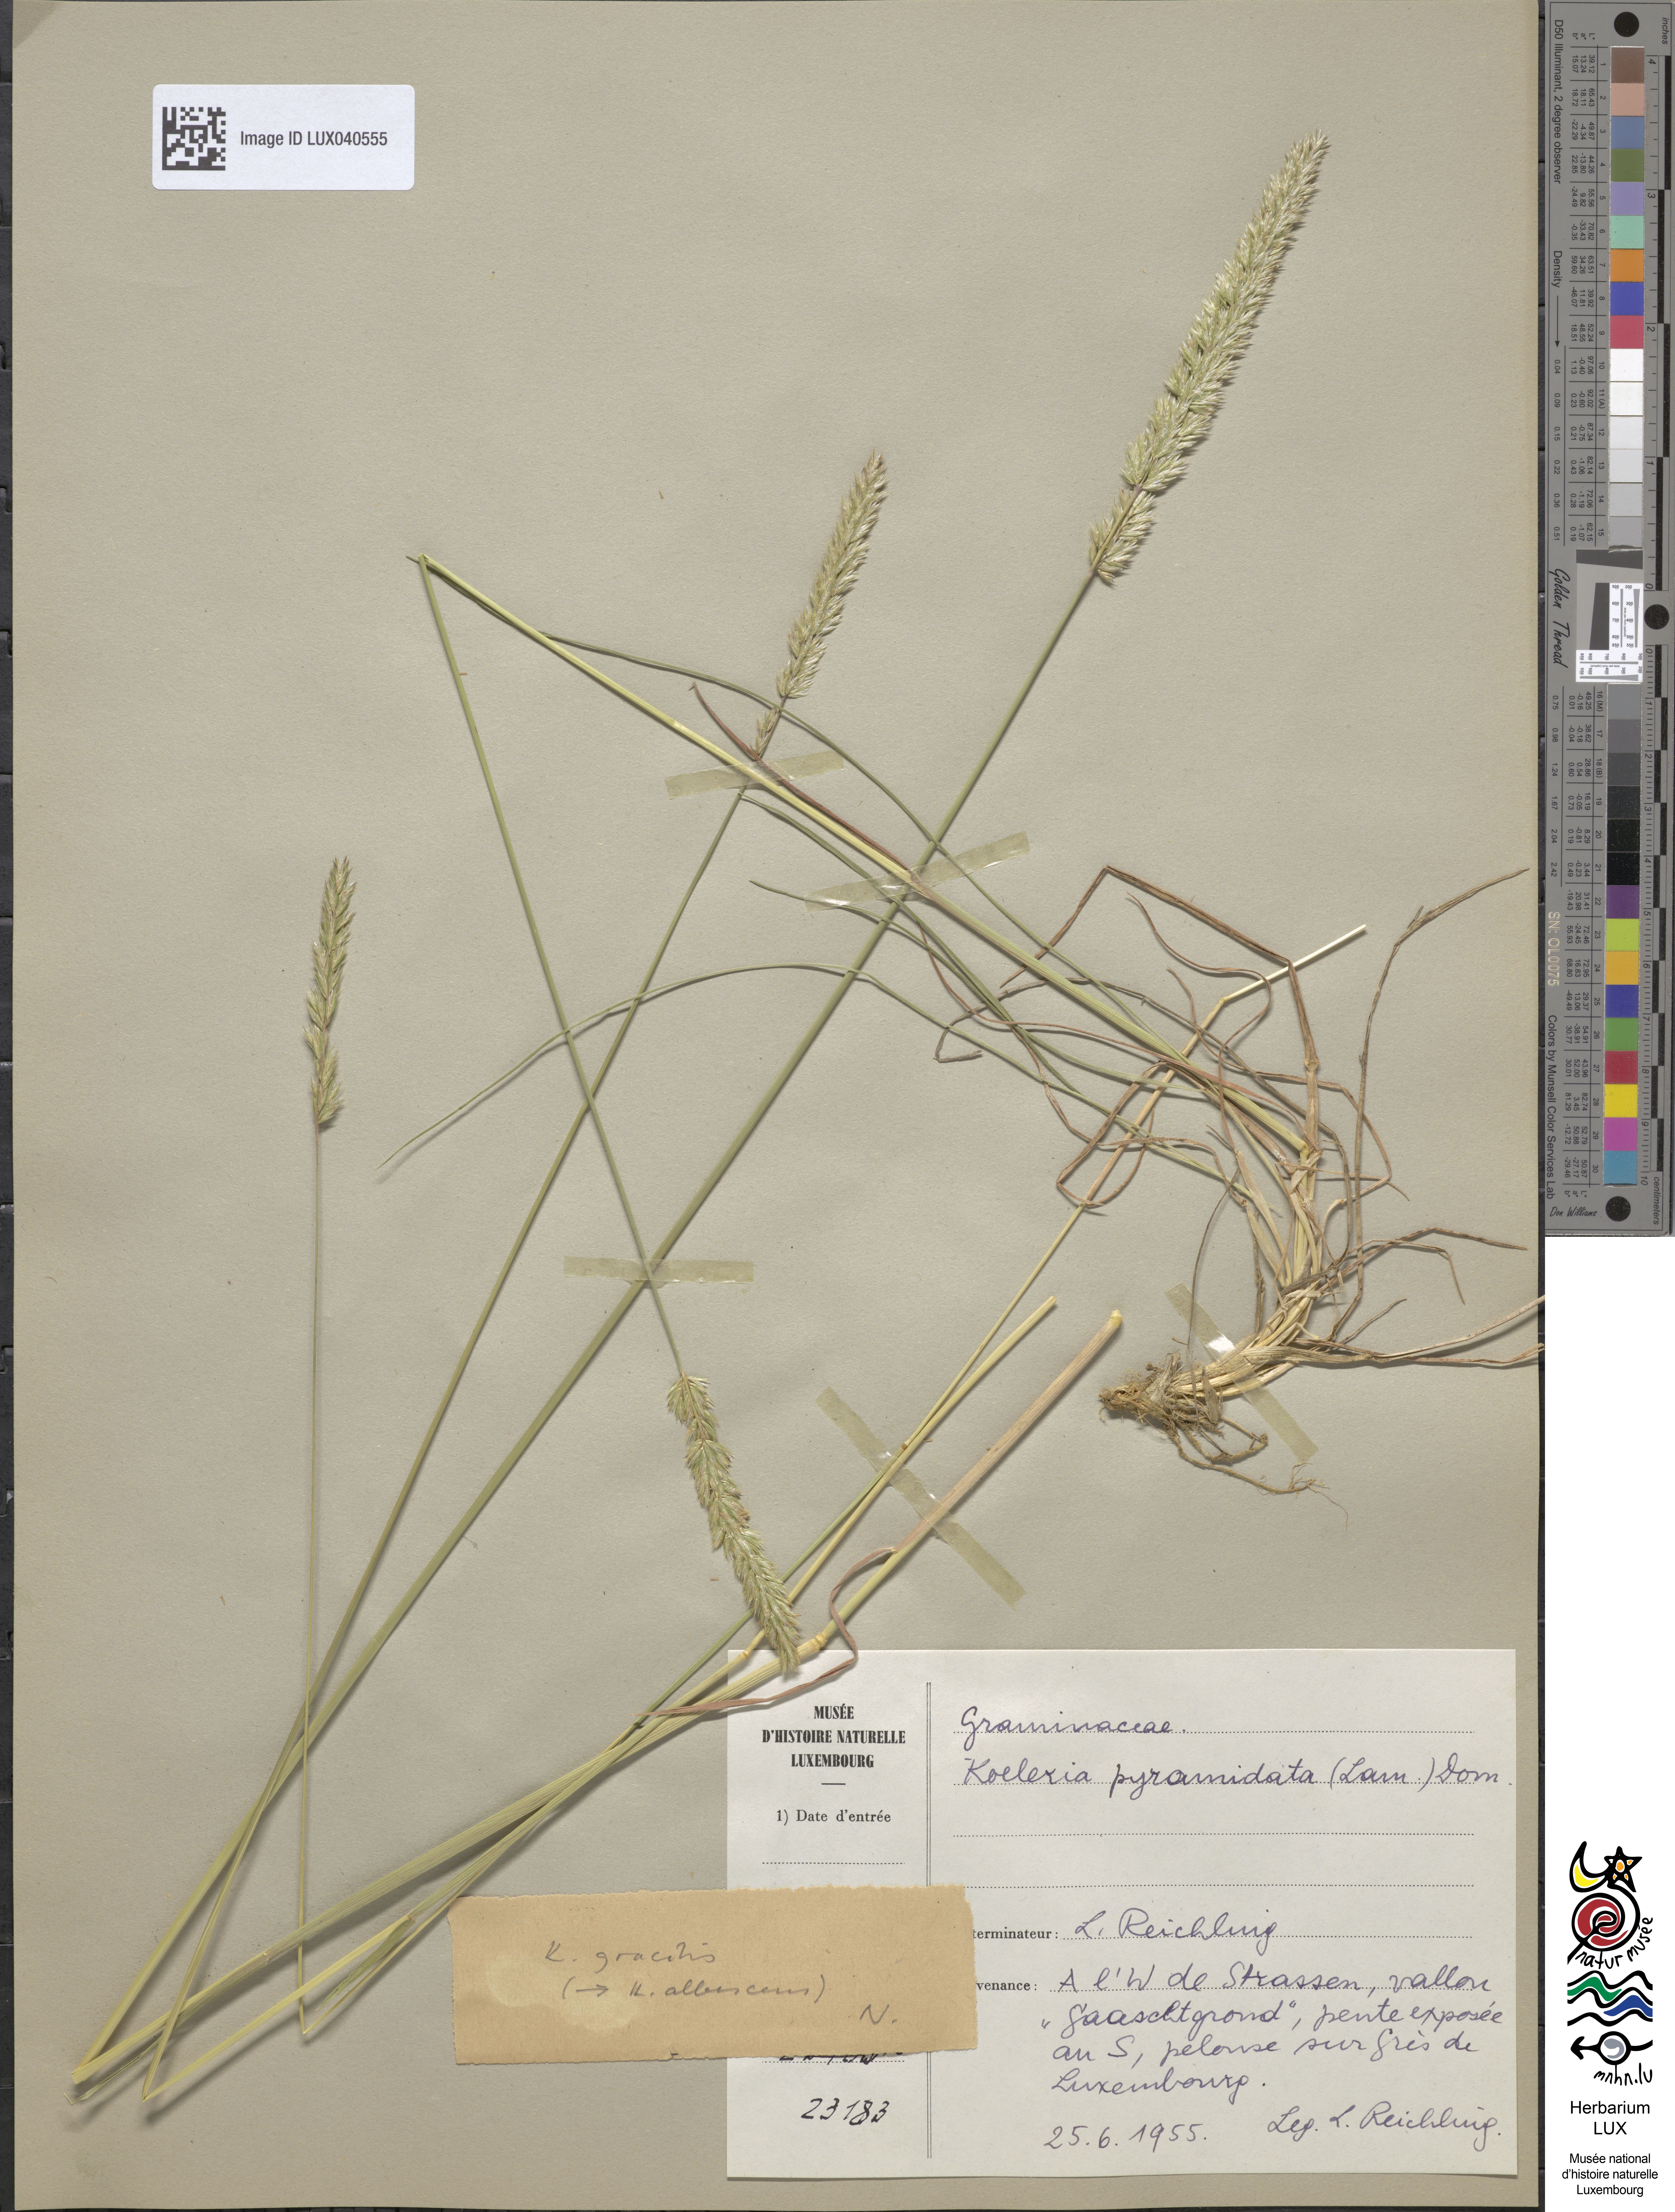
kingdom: Plantae
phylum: Tracheophyta
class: Liliopsida
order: Poales
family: Poaceae
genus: Koeleria
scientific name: Koeleria pyramidata
